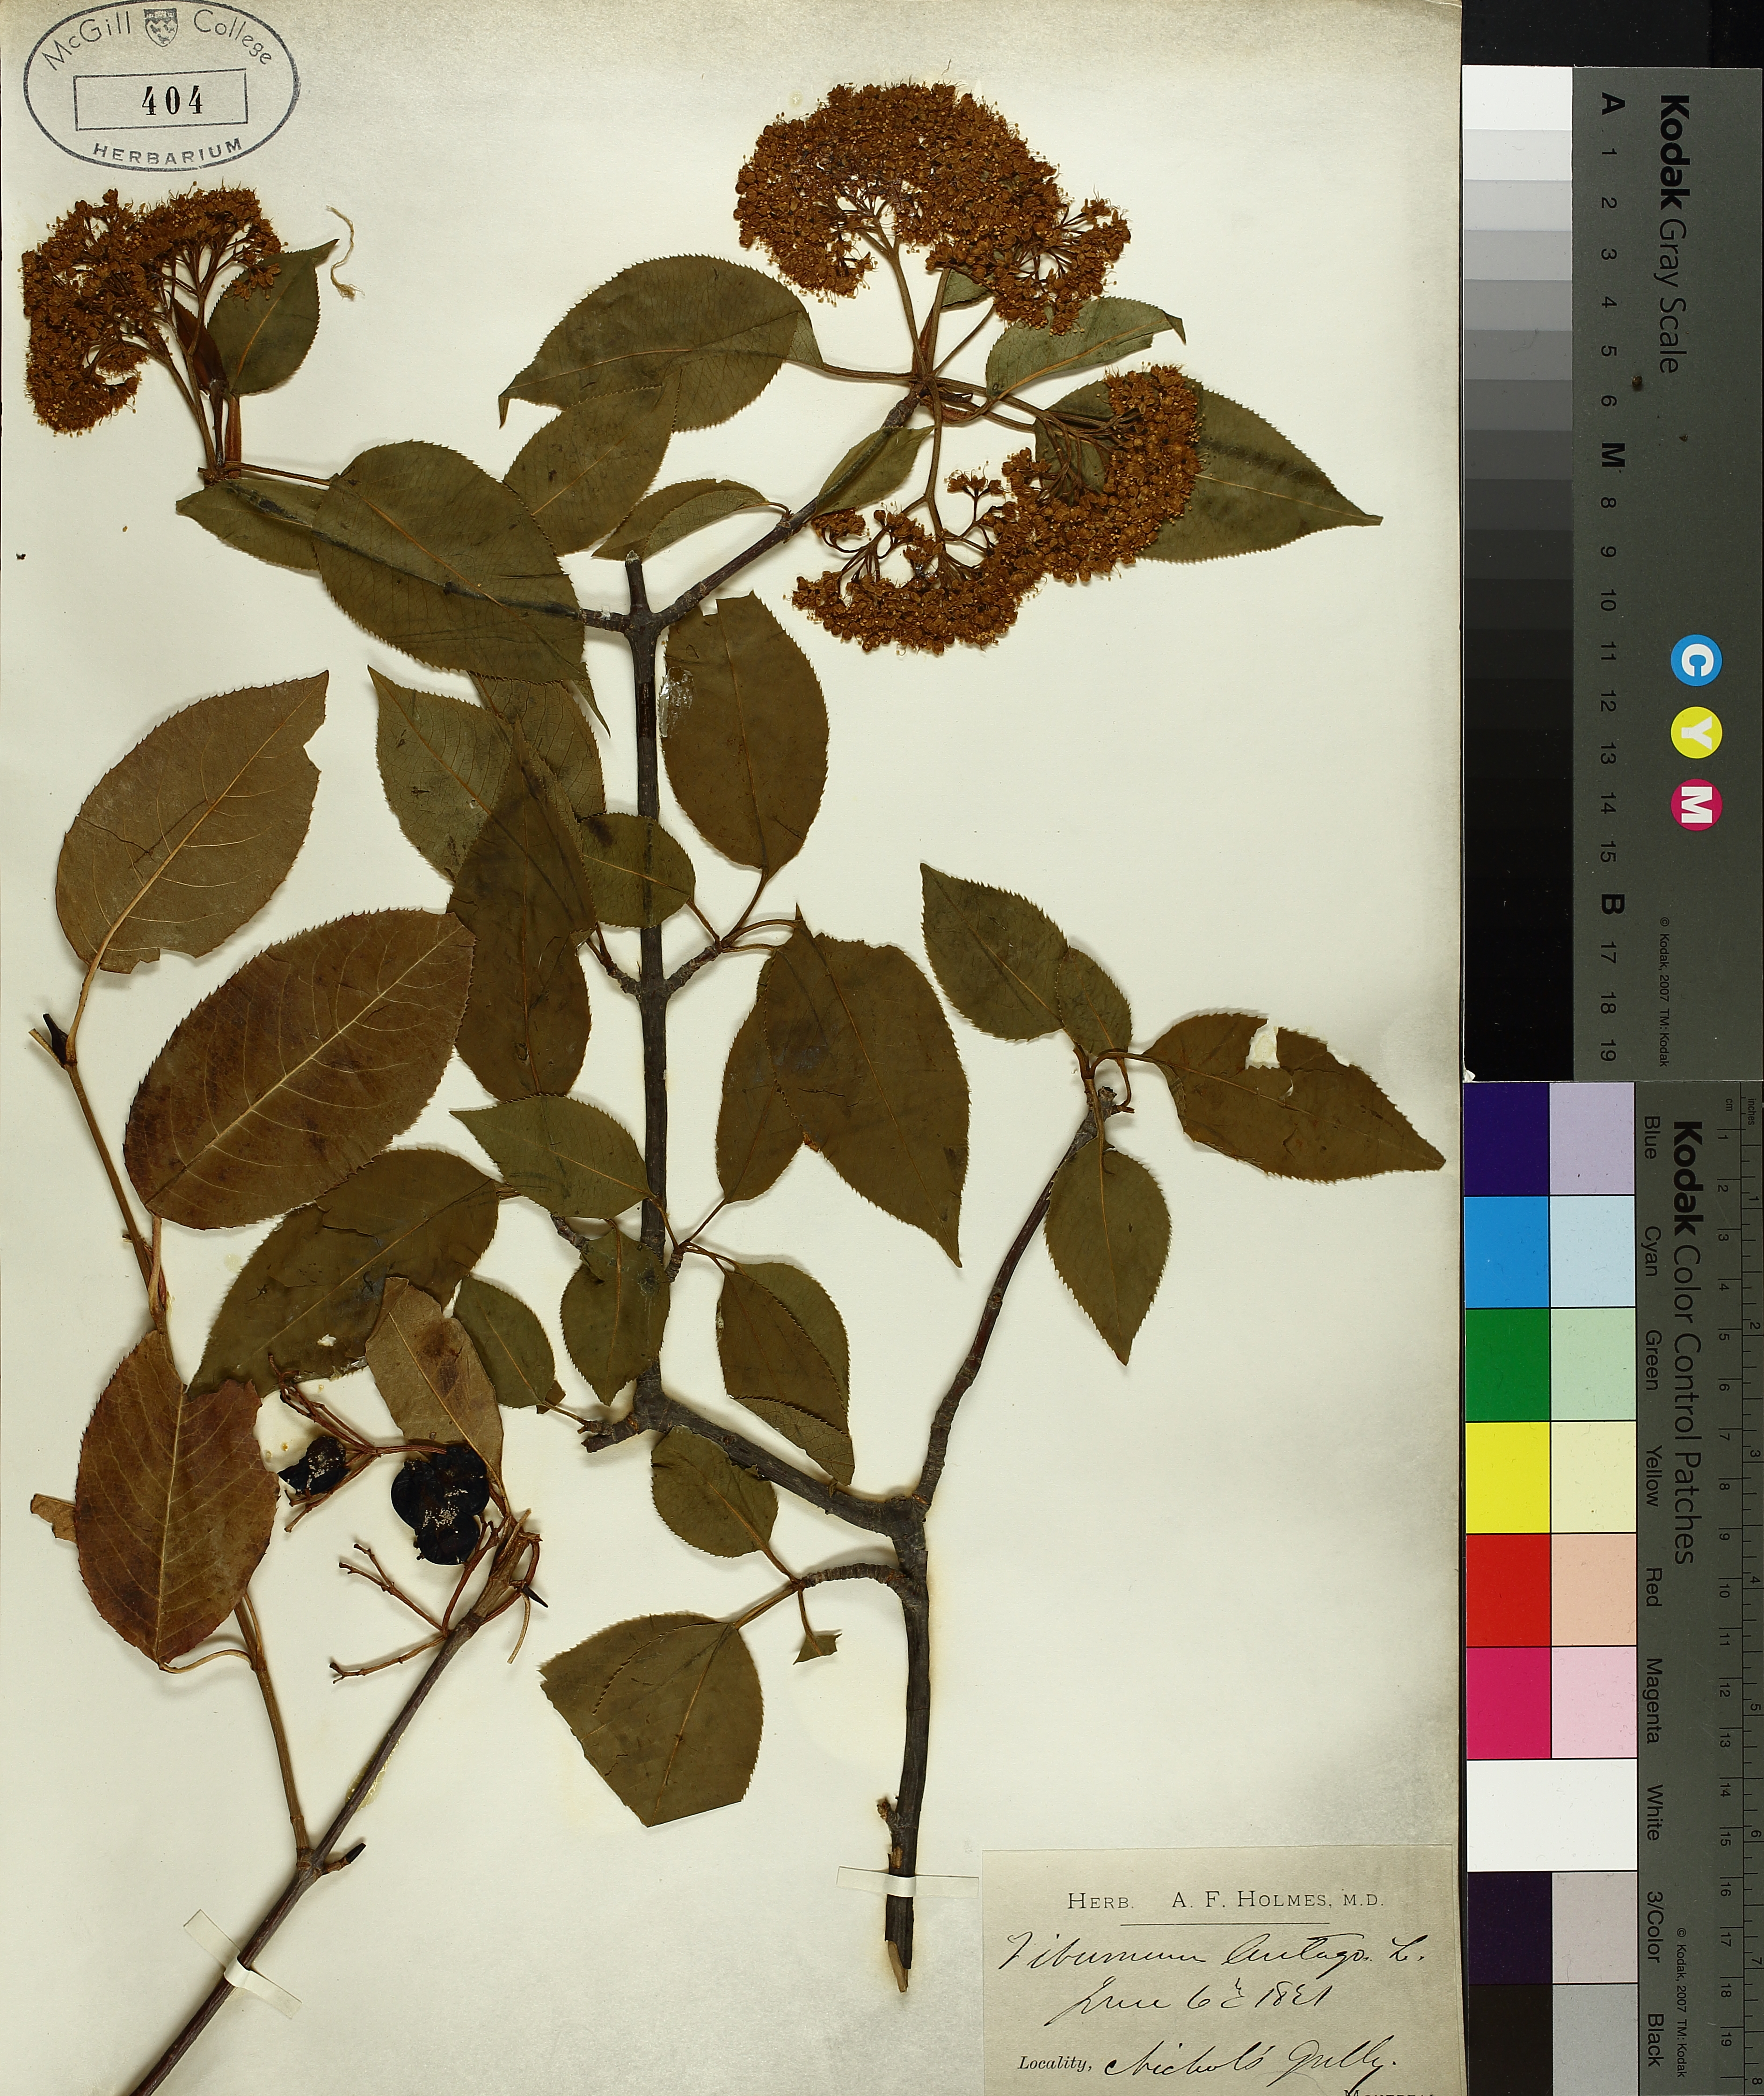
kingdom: Plantae
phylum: Tracheophyta
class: Magnoliopsida
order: Dipsacales
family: Viburnaceae
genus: Viburnum
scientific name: Viburnum lentago
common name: Black haw
